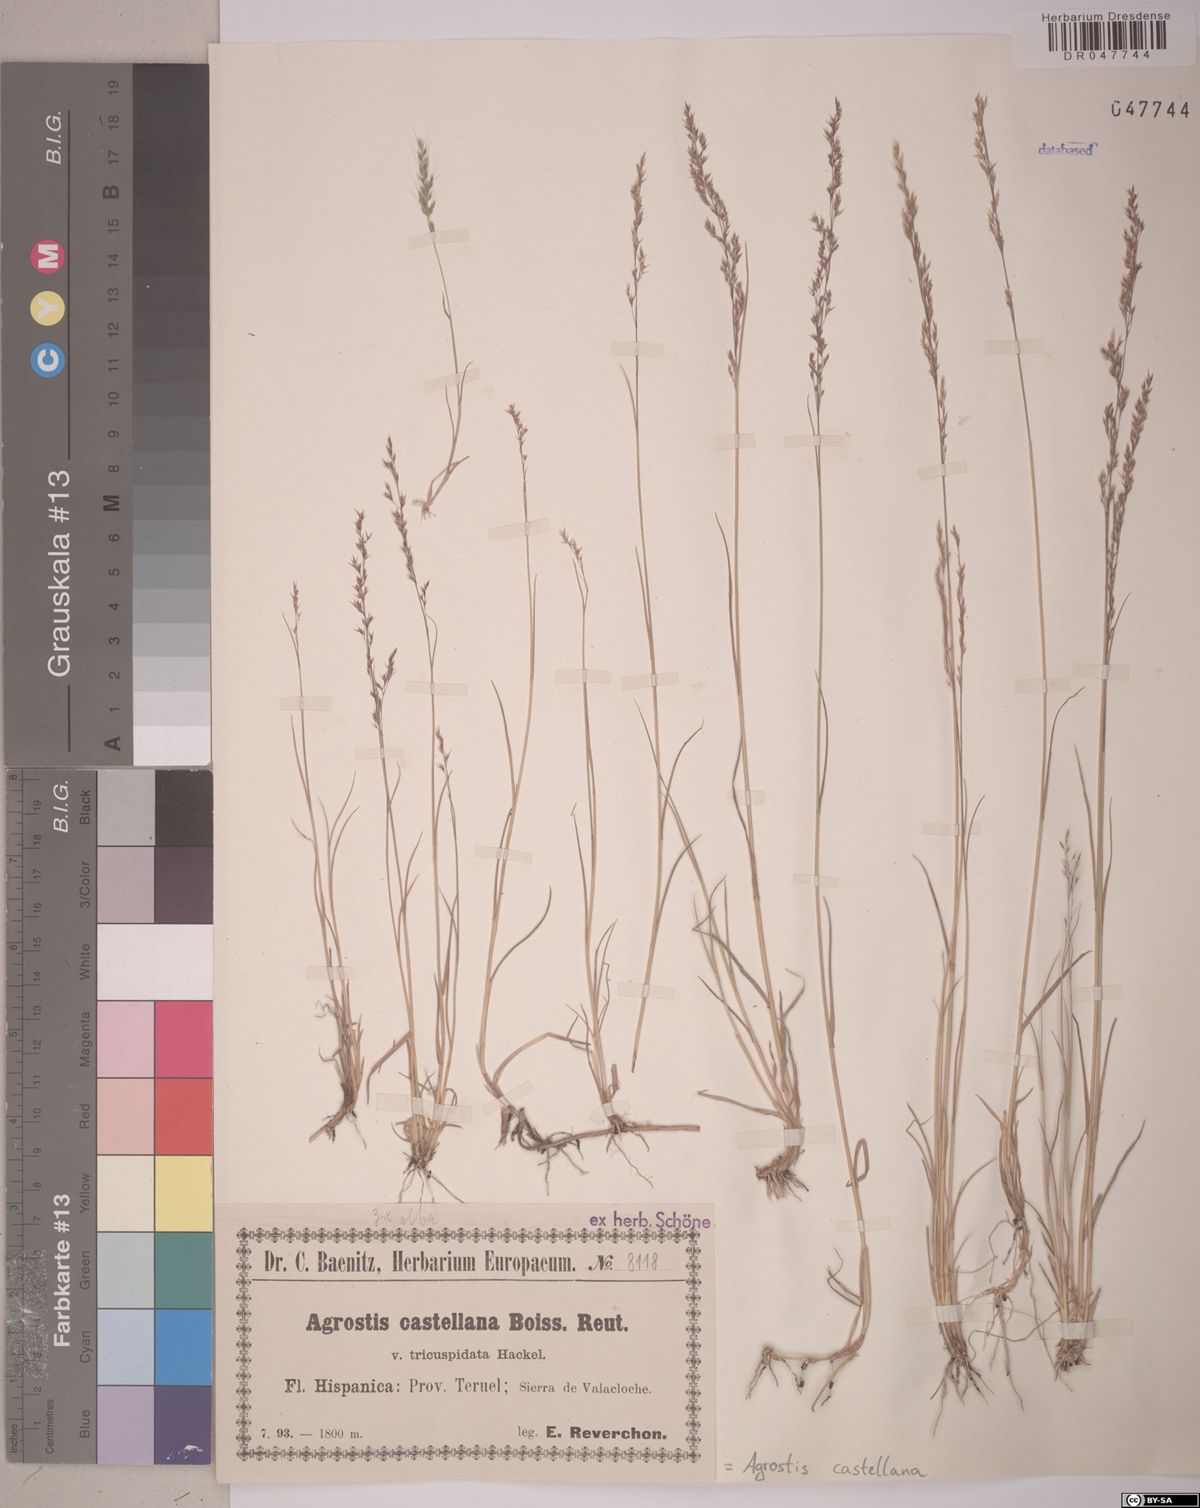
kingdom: Plantae
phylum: Tracheophyta
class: Liliopsida
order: Poales
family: Poaceae
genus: Agrostis
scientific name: Agrostis castellana
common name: Highland bent
